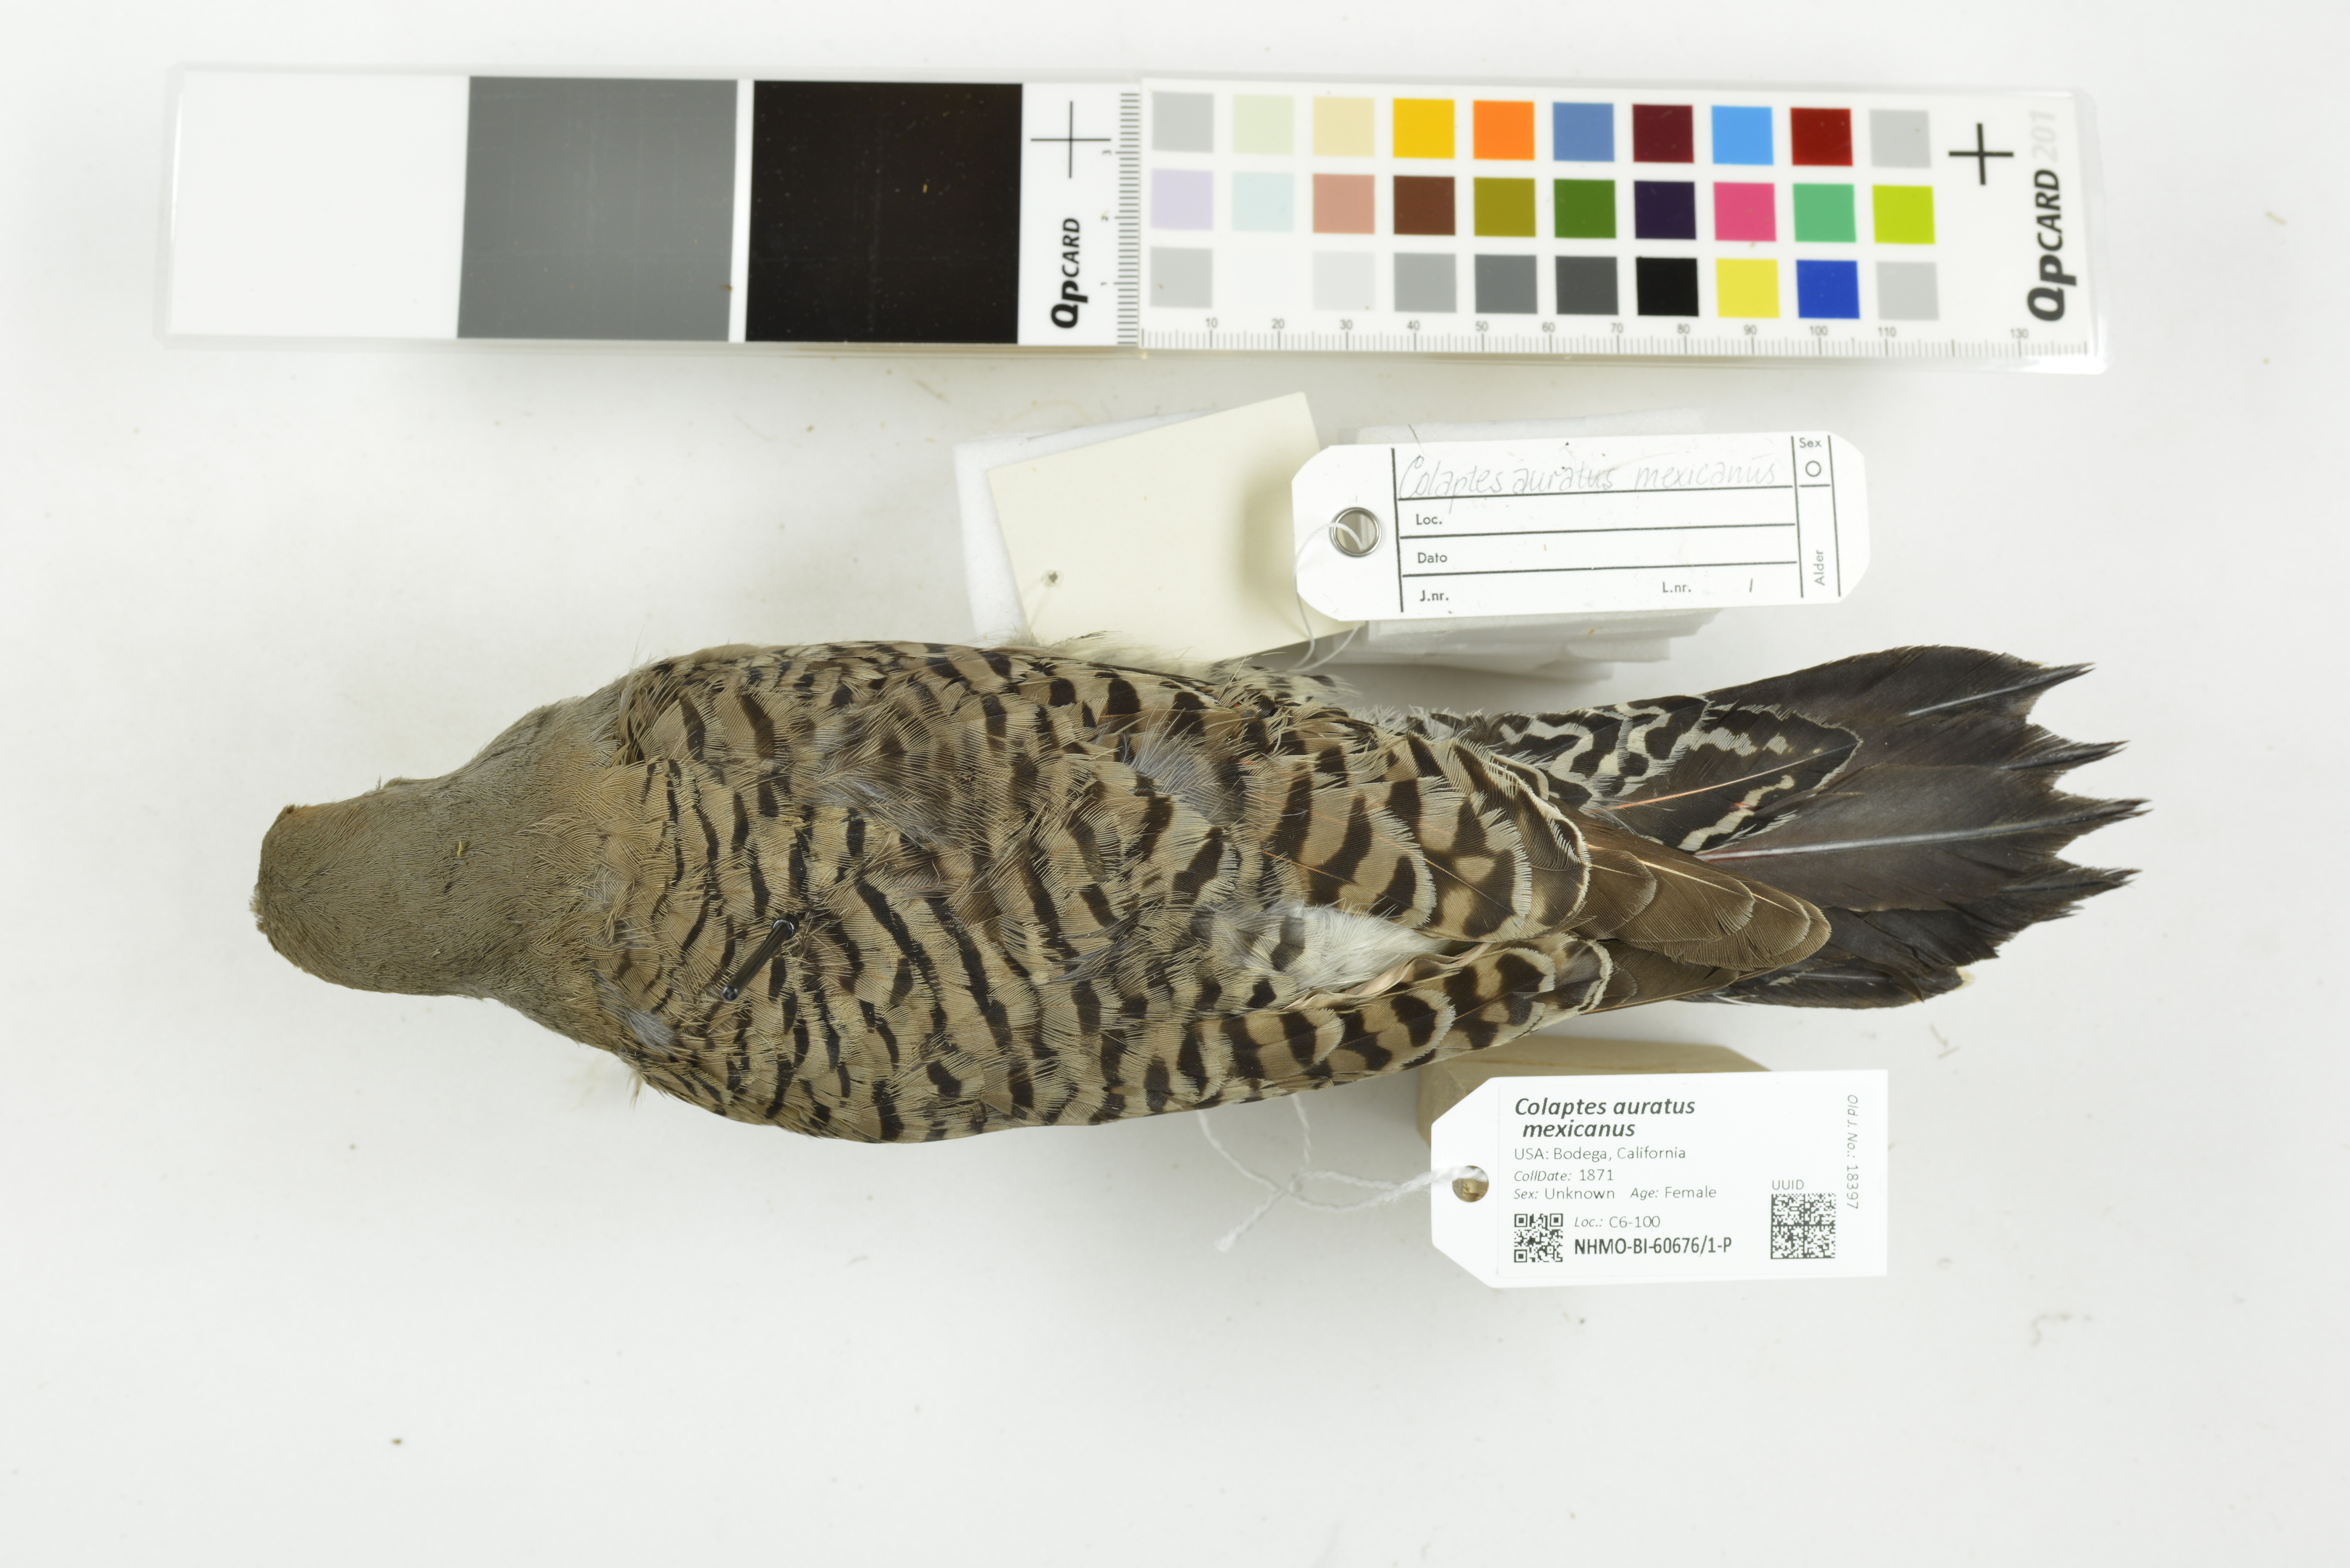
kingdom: Animalia
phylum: Chordata
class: Aves
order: Piciformes
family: Picidae
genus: Colaptes
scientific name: Colaptes auratus
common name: Northern flicker
